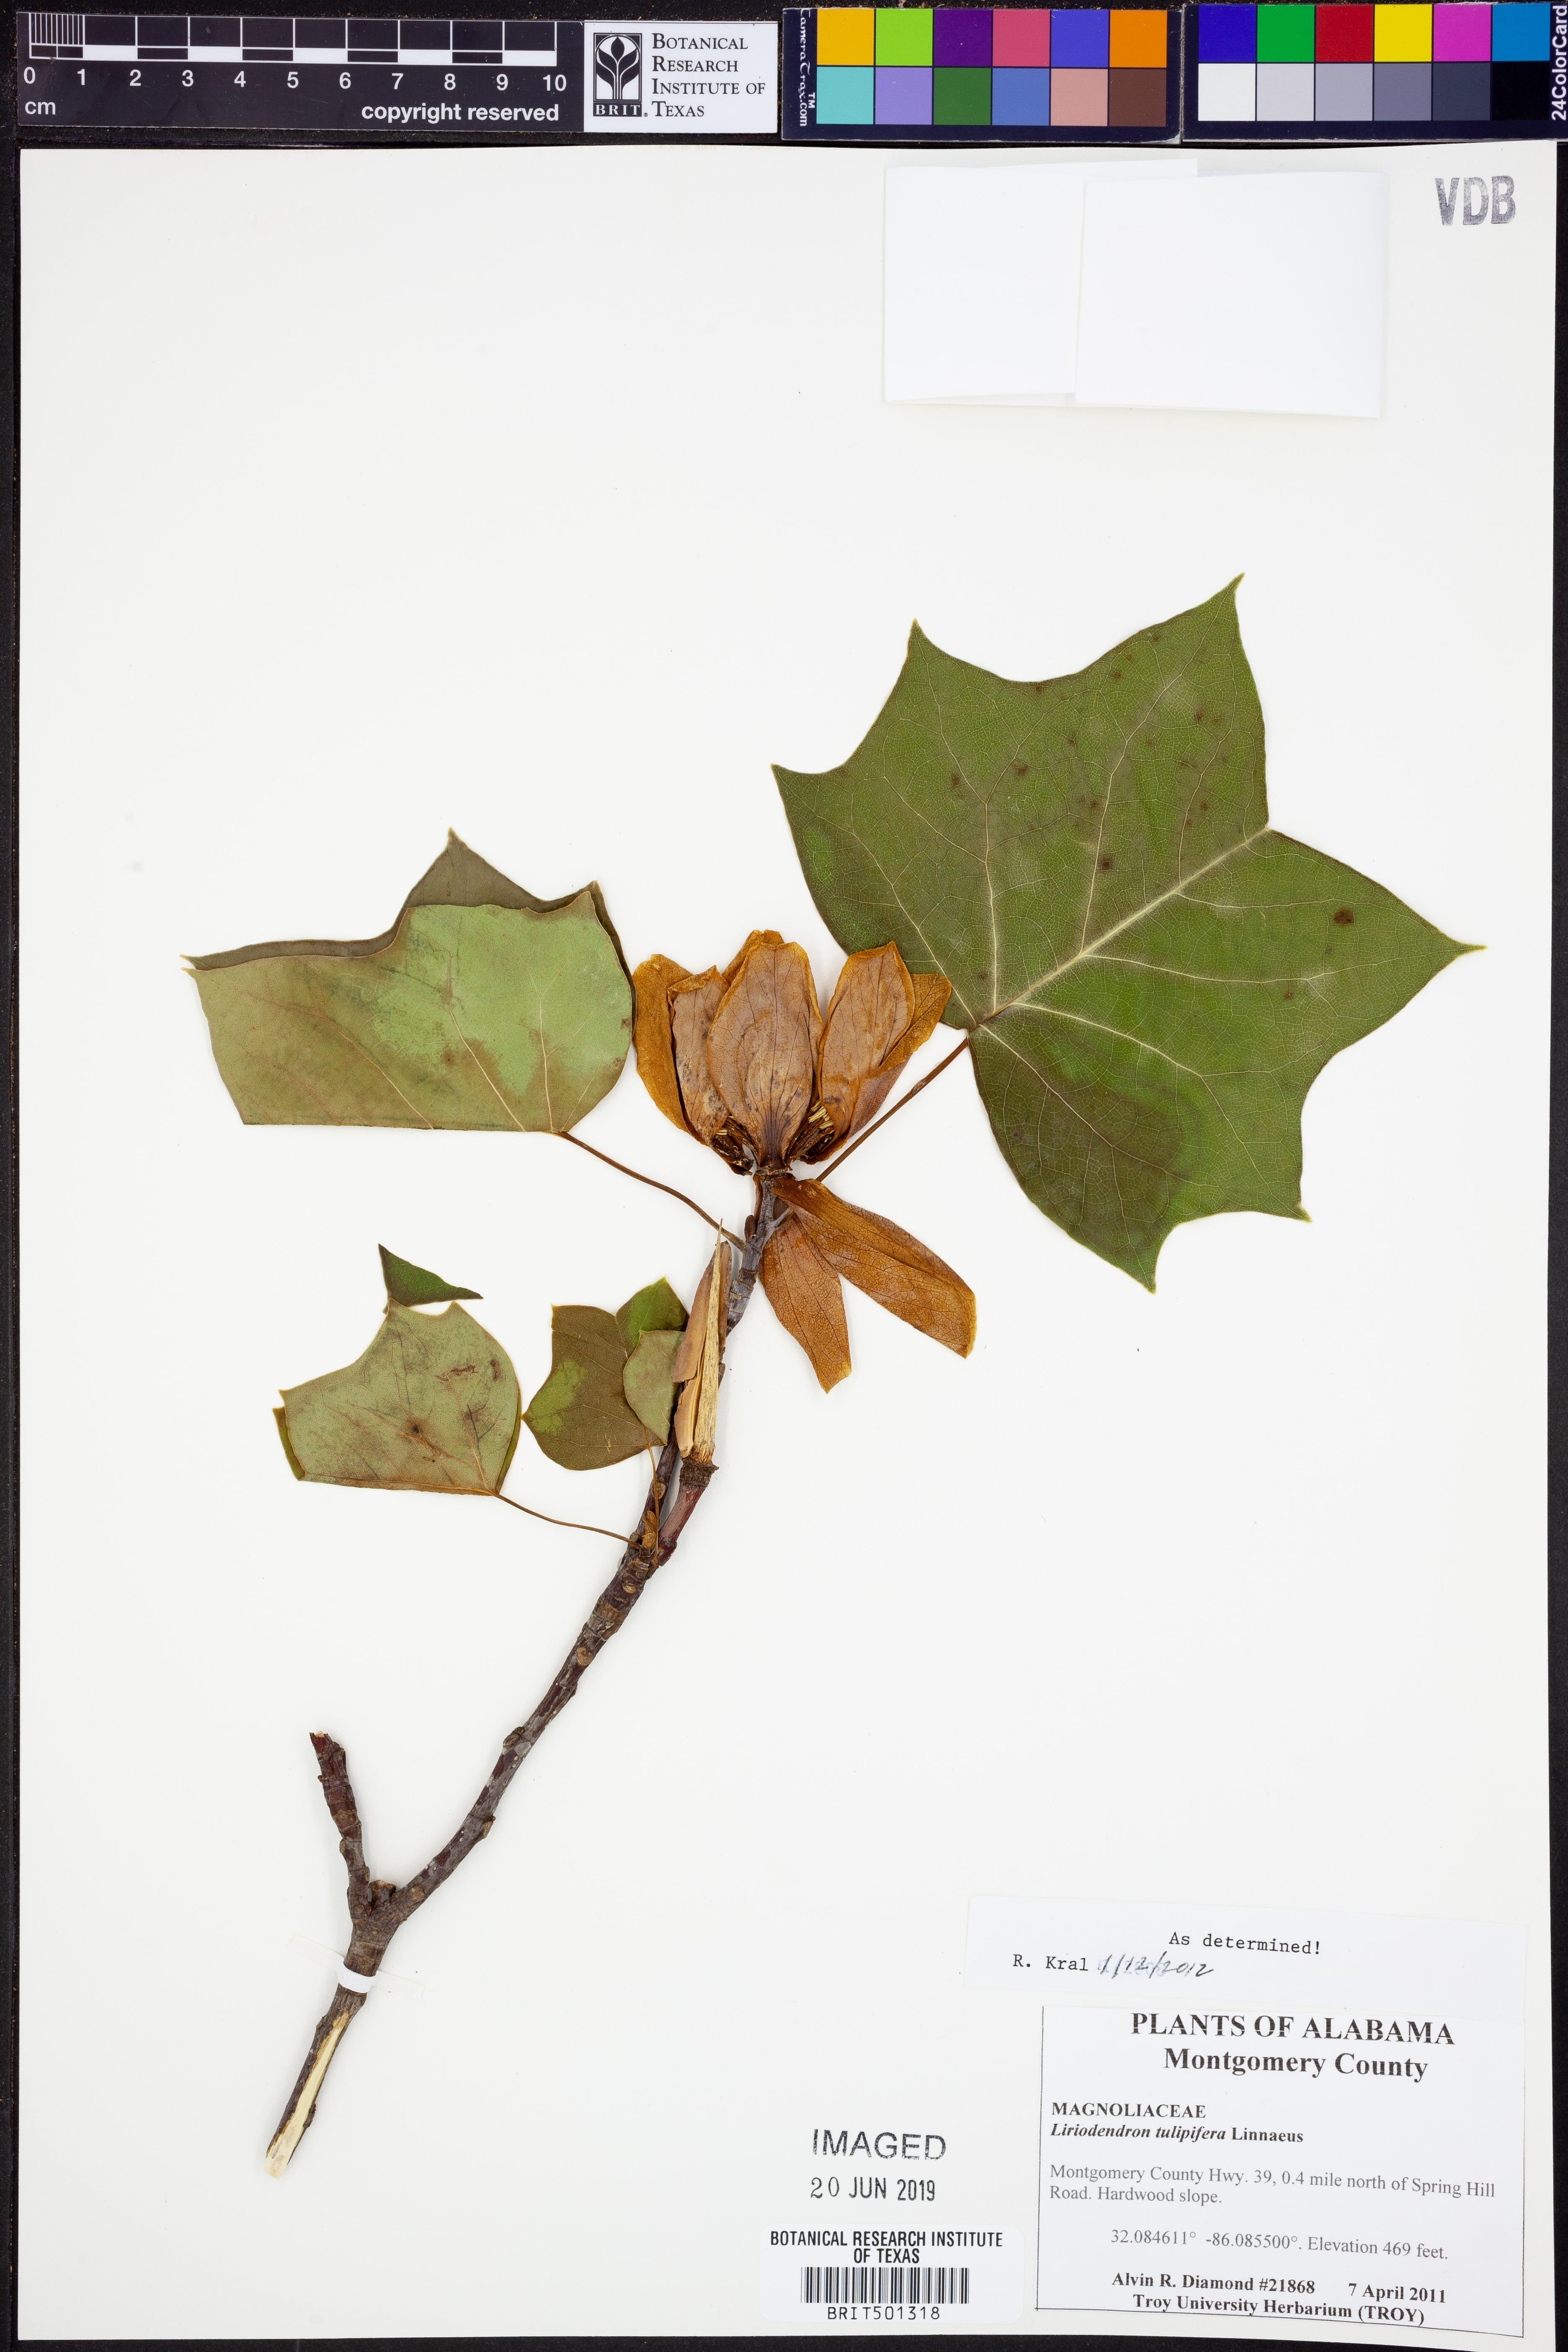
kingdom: Plantae
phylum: Tracheophyta
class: Magnoliopsida
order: Magnoliales
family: Magnoliaceae
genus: Liriodendron
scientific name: Liriodendron tulipifera
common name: Tulip tree
